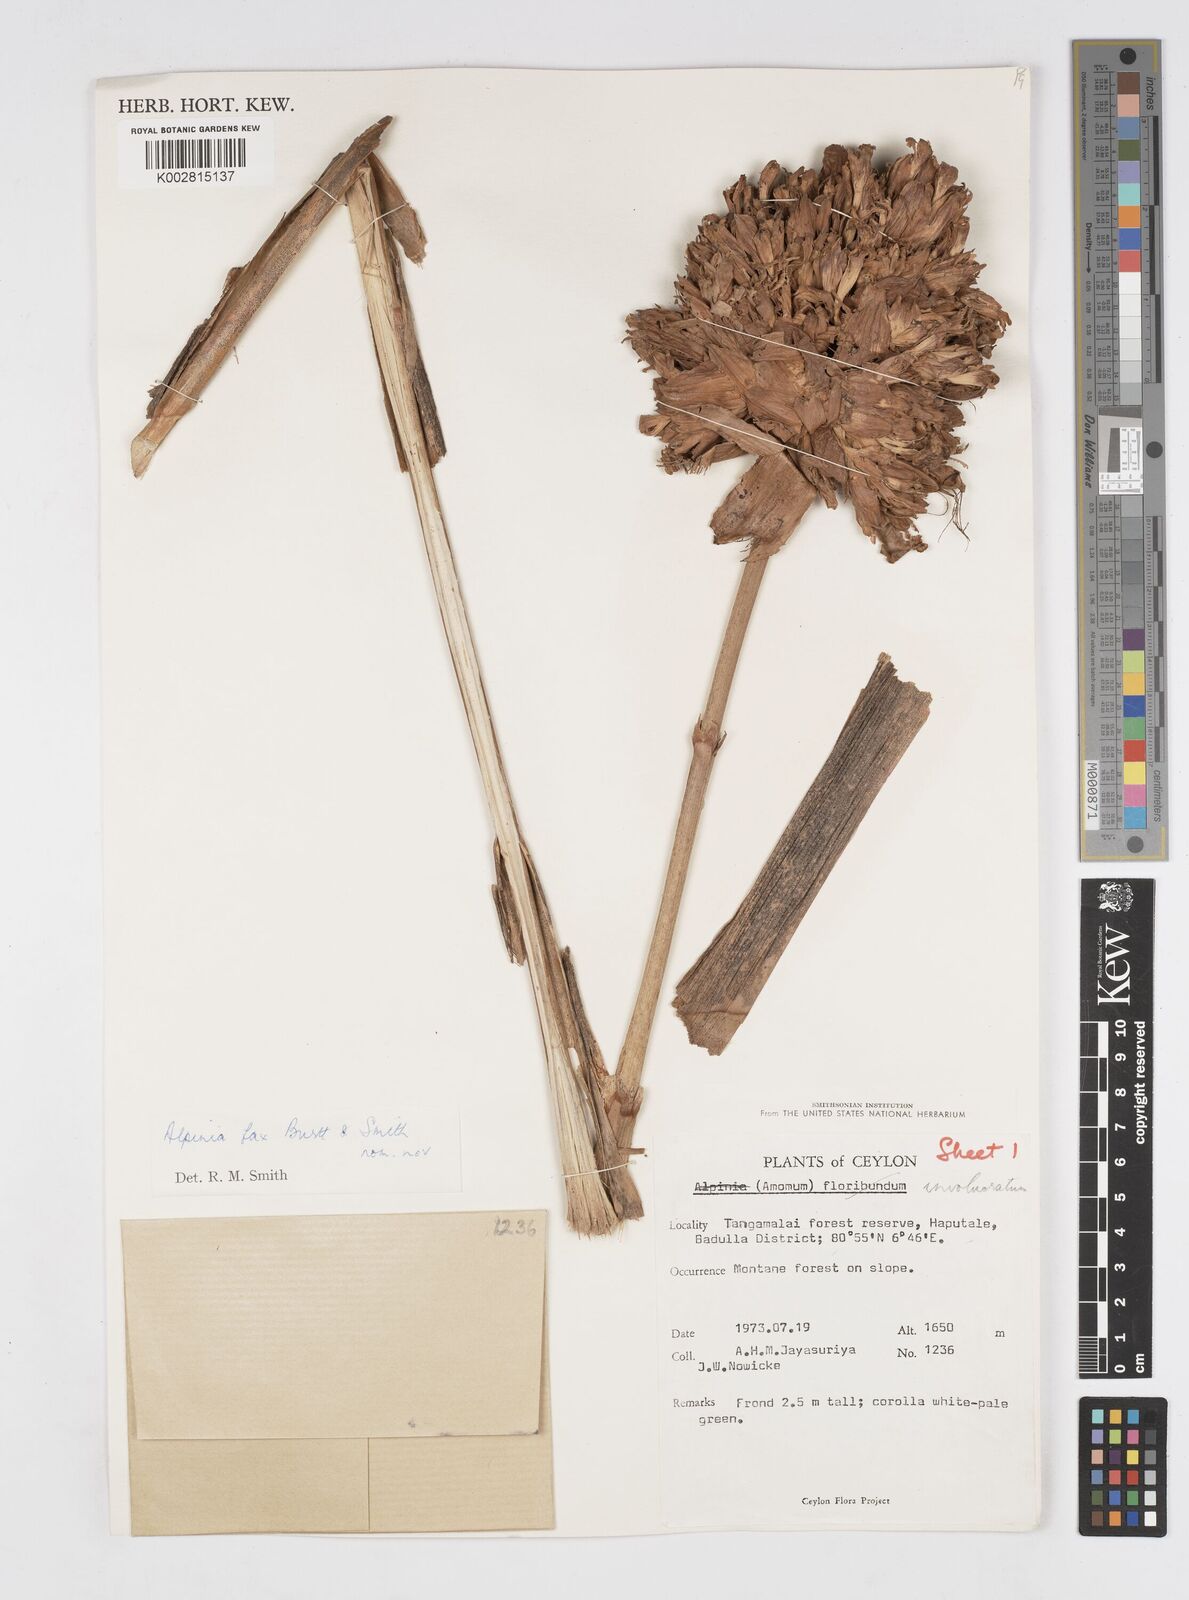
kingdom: Plantae
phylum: Tracheophyta
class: Liliopsida
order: Zingiberales
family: Zingiberaceae
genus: Alpinia
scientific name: Alpinia fax
